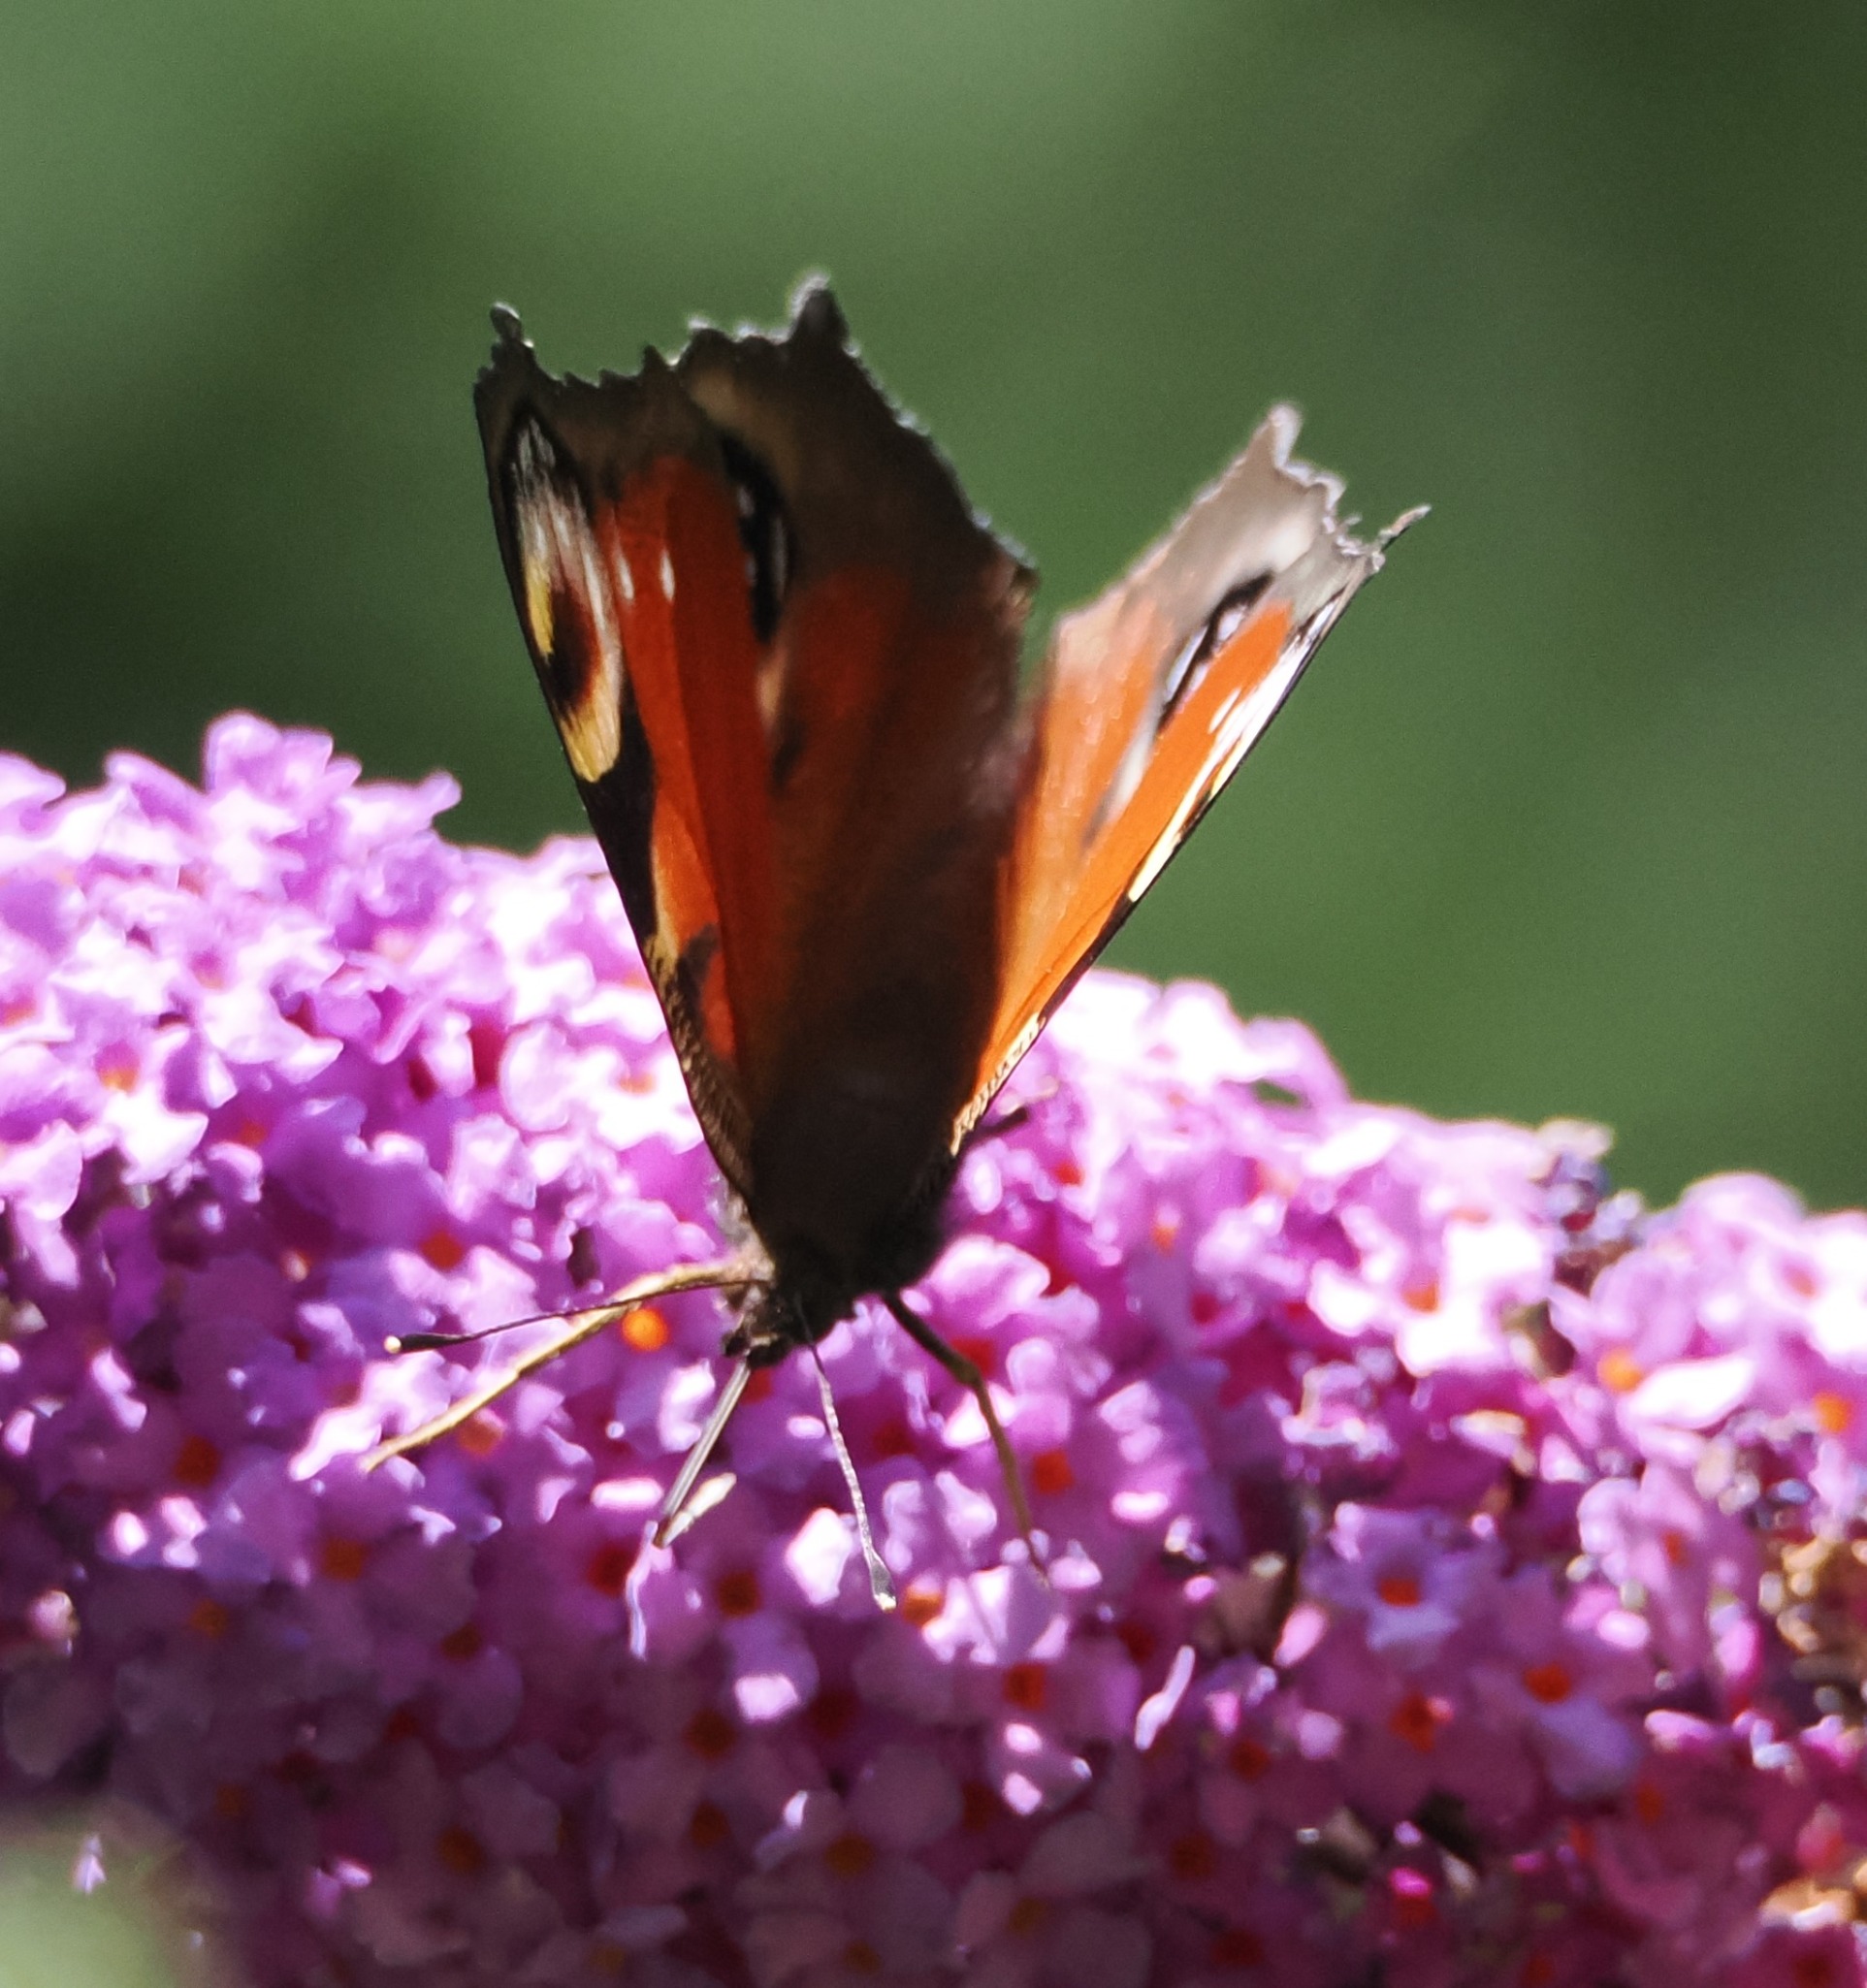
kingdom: Animalia
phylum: Arthropoda
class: Insecta
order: Lepidoptera
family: Nymphalidae
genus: Aglais
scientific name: Aglais io
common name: Dagpåfugleøje
